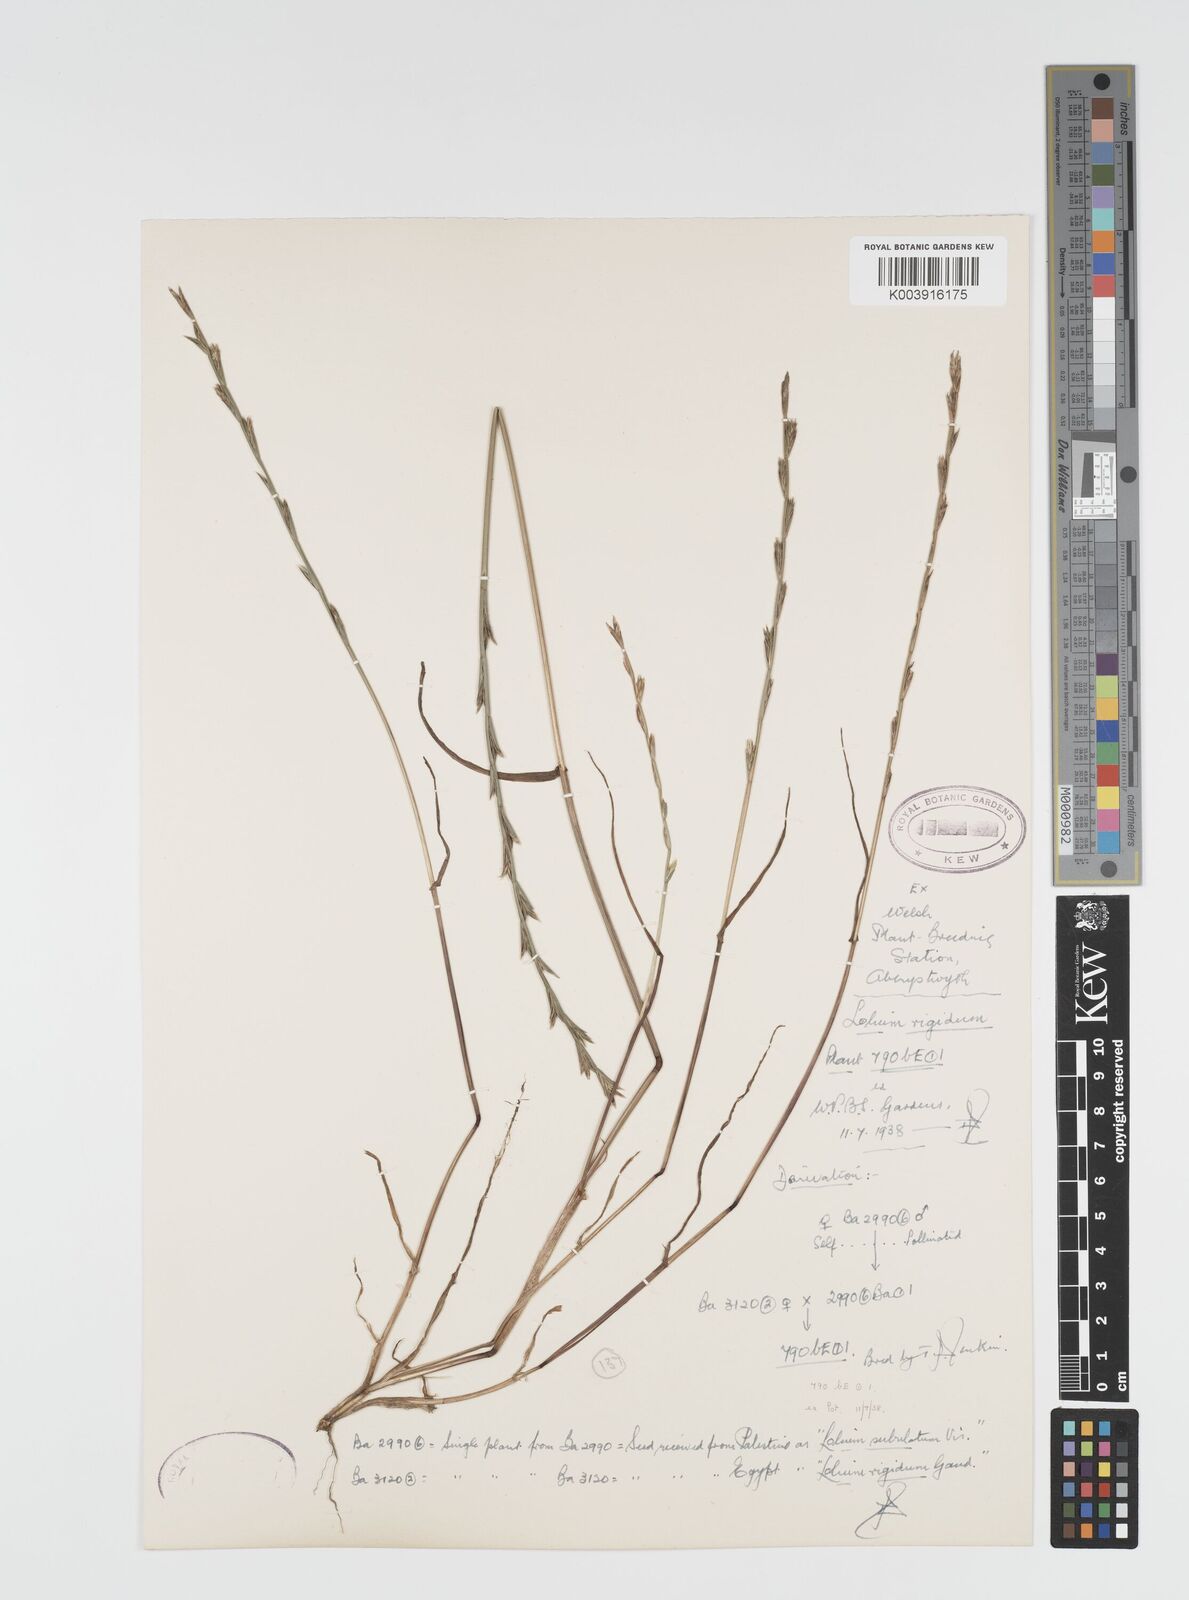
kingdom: Plantae
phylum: Tracheophyta
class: Liliopsida
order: Poales
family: Poaceae
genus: Lolium
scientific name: Lolium rigidum
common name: Wimmera ryegrass
